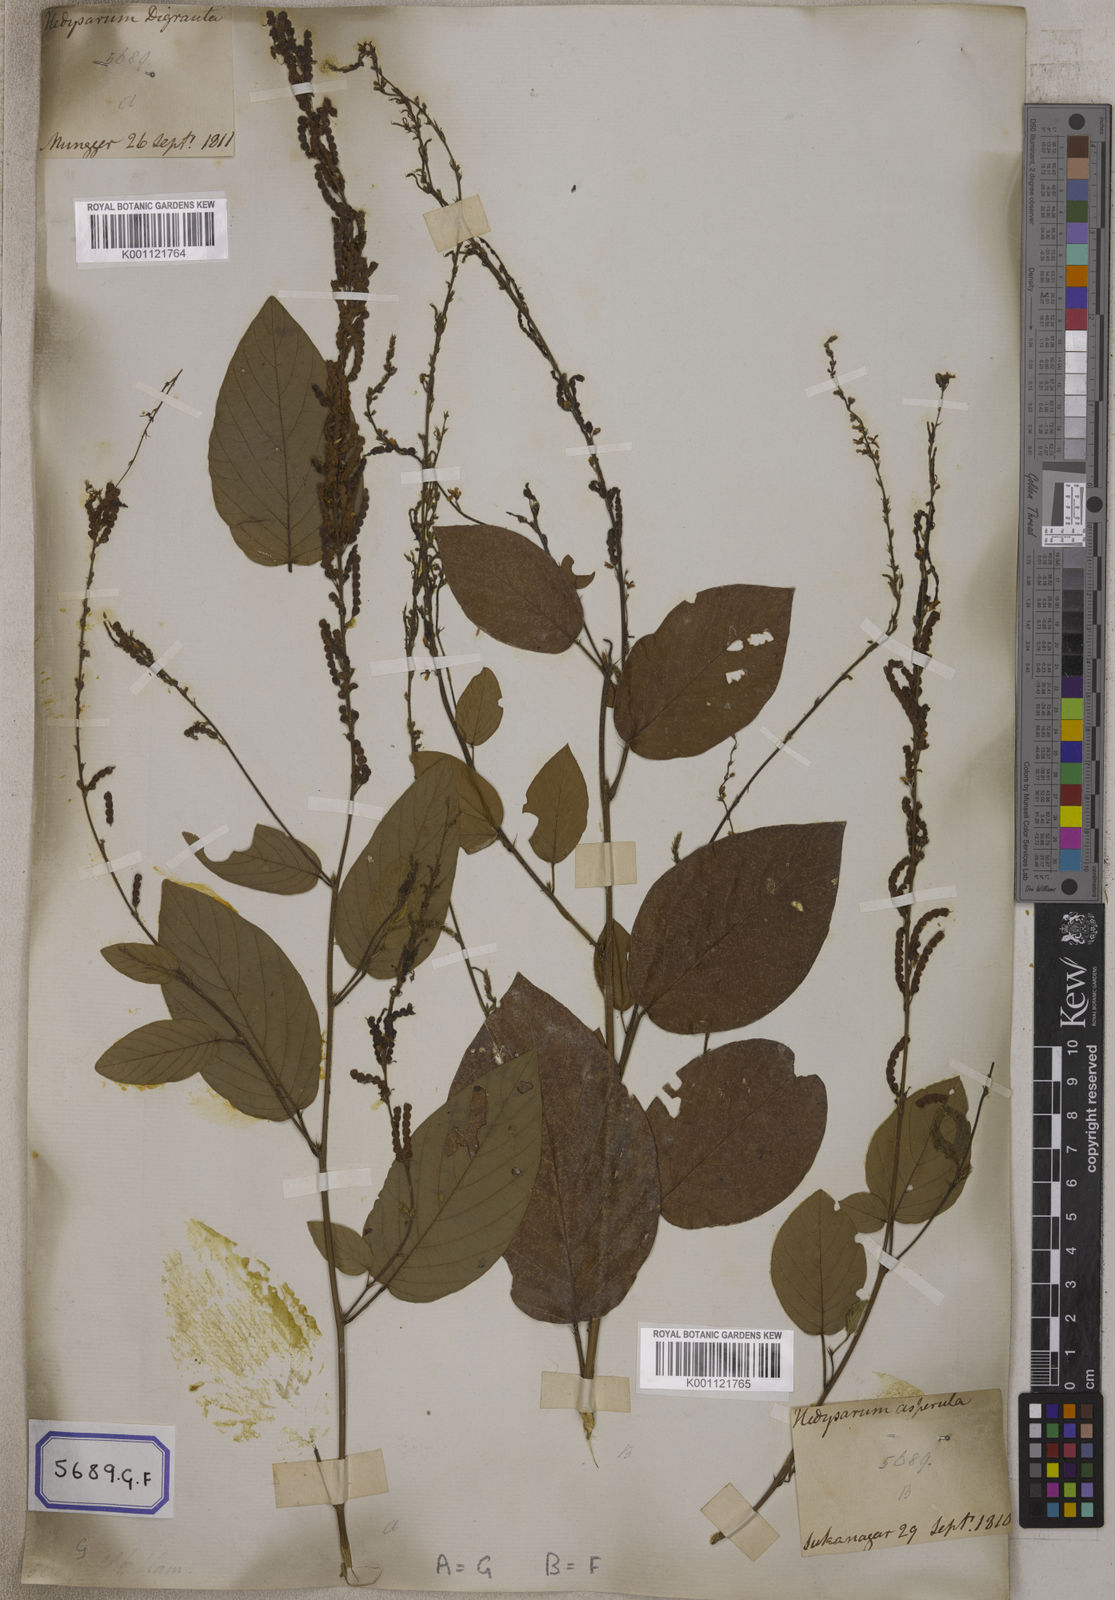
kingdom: Plantae
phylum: Tracheophyta
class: Magnoliopsida
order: Fabales
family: Fabaceae
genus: Pleurolobus
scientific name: Pleurolobus gangeticus
